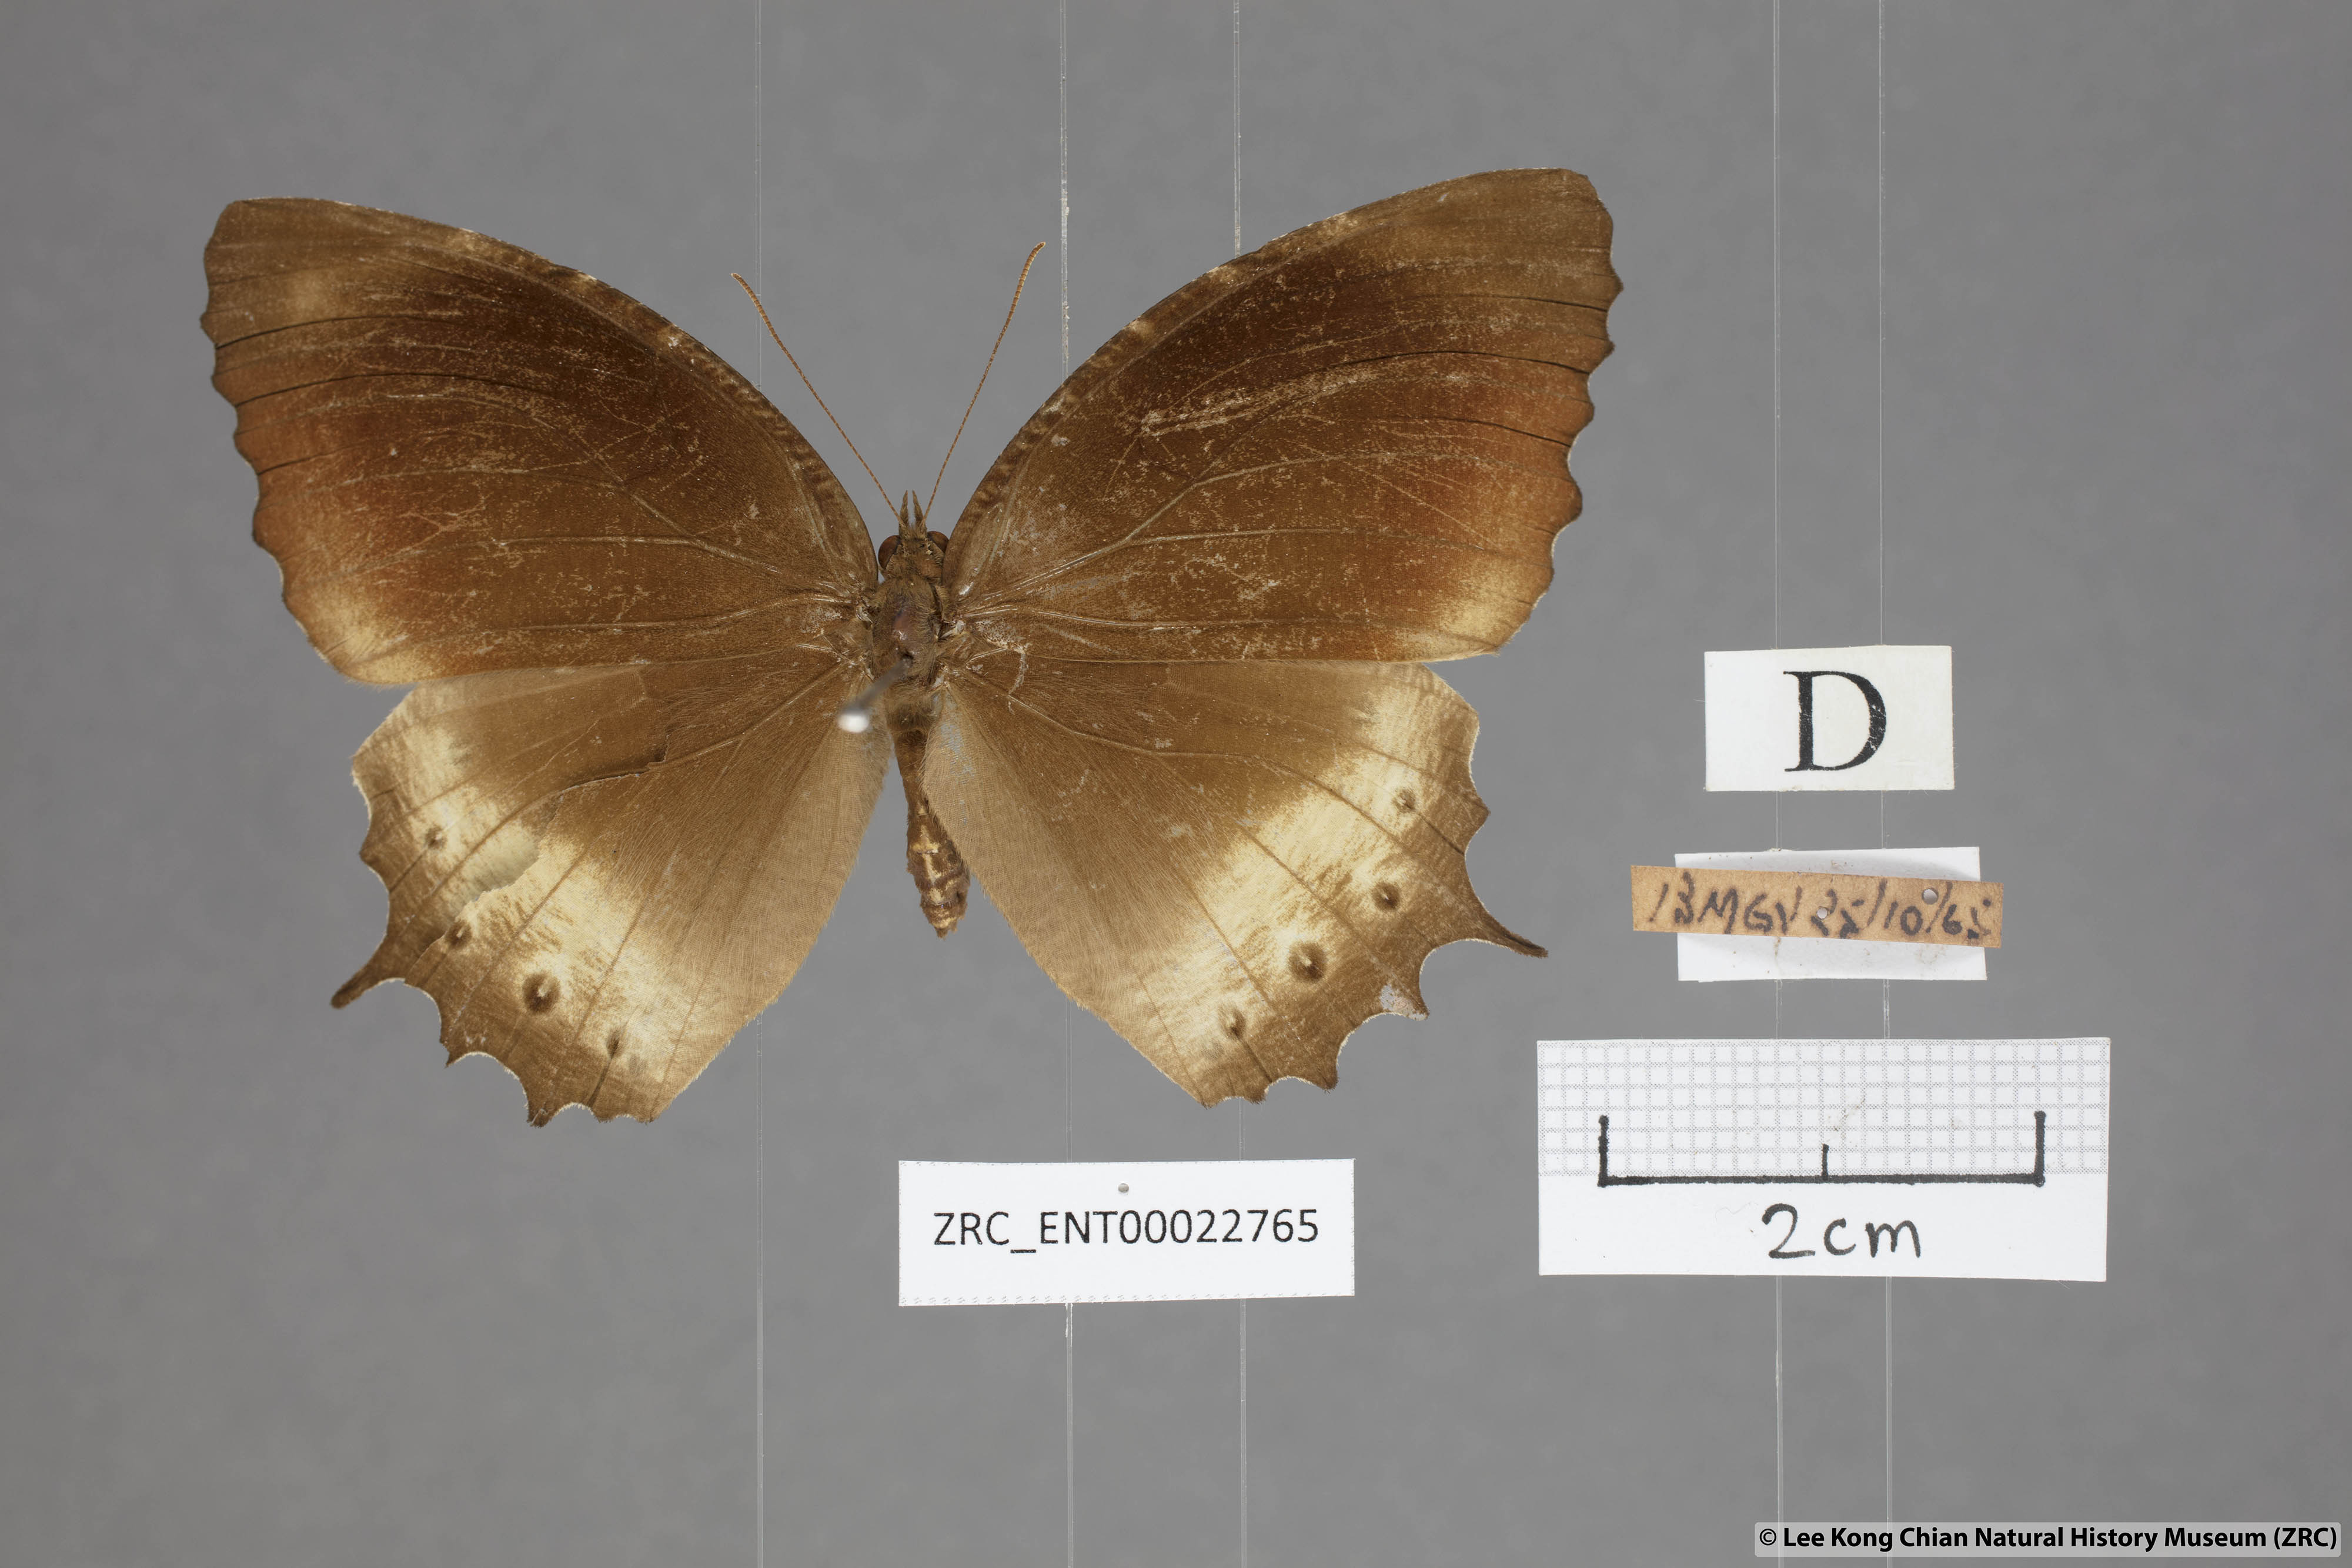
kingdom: Animalia
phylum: Arthropoda
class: Insecta
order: Lepidoptera
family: Nymphalidae
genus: Elymnias
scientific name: Elymnias panthera
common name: Tawny palmfly
